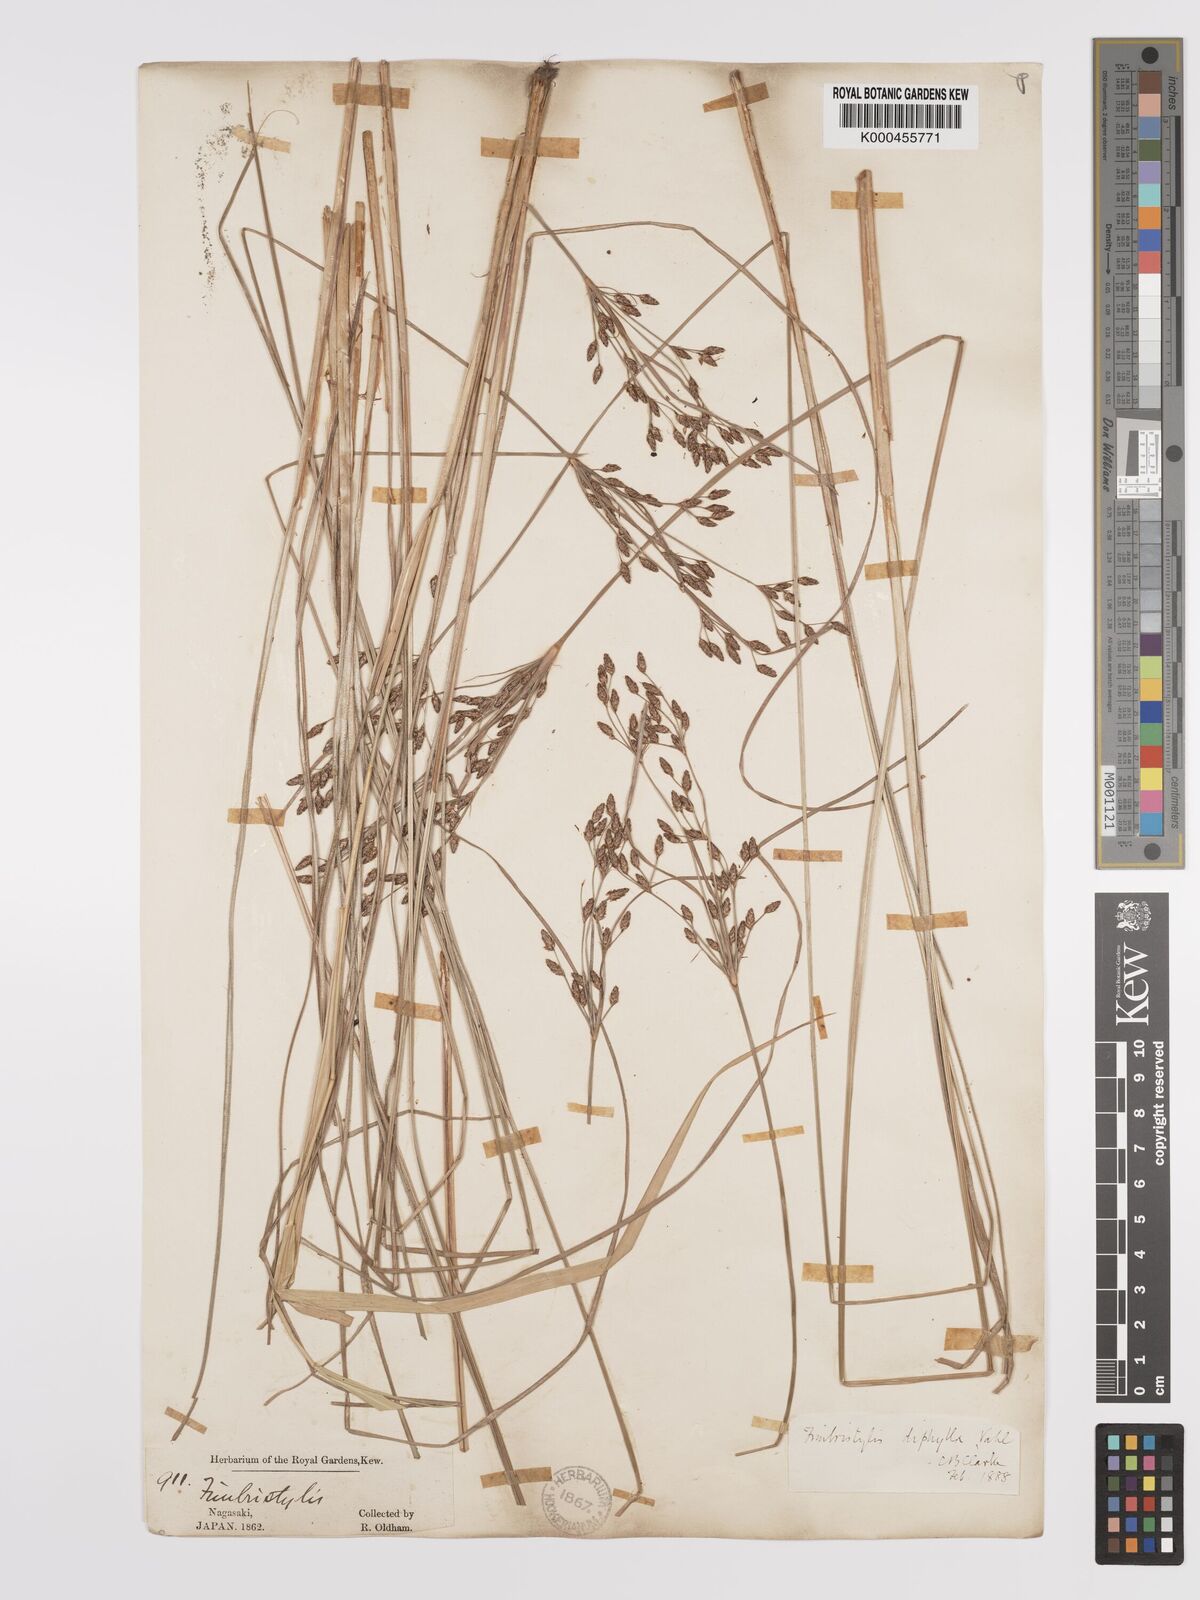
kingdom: Plantae
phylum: Tracheophyta
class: Liliopsida
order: Poales
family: Cyperaceae
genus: Fimbristylis
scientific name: Fimbristylis dichotoma
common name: Forked fimbry
